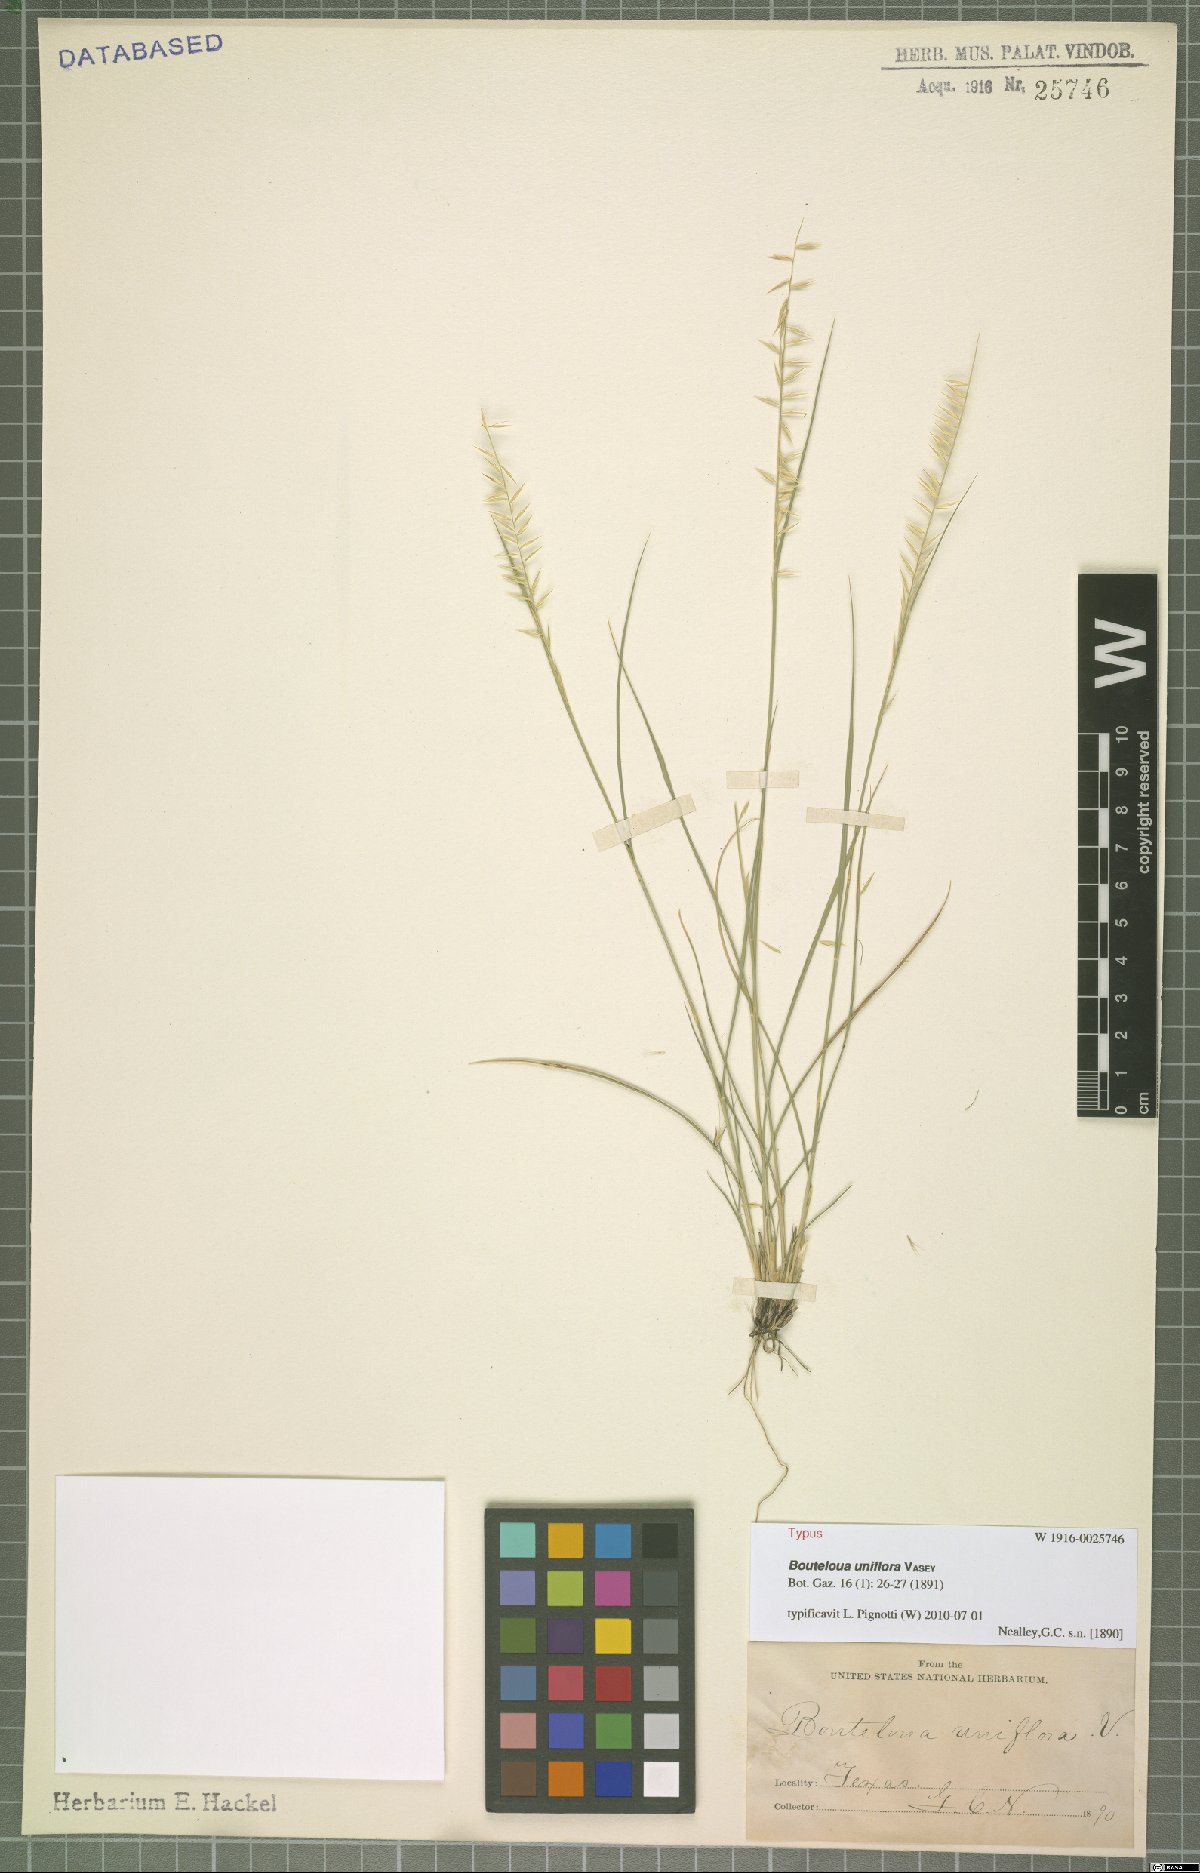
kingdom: Plantae
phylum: Tracheophyta
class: Liliopsida
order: Poales
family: Poaceae
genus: Bouteloua
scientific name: Bouteloua uniflora
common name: Neally's grama
